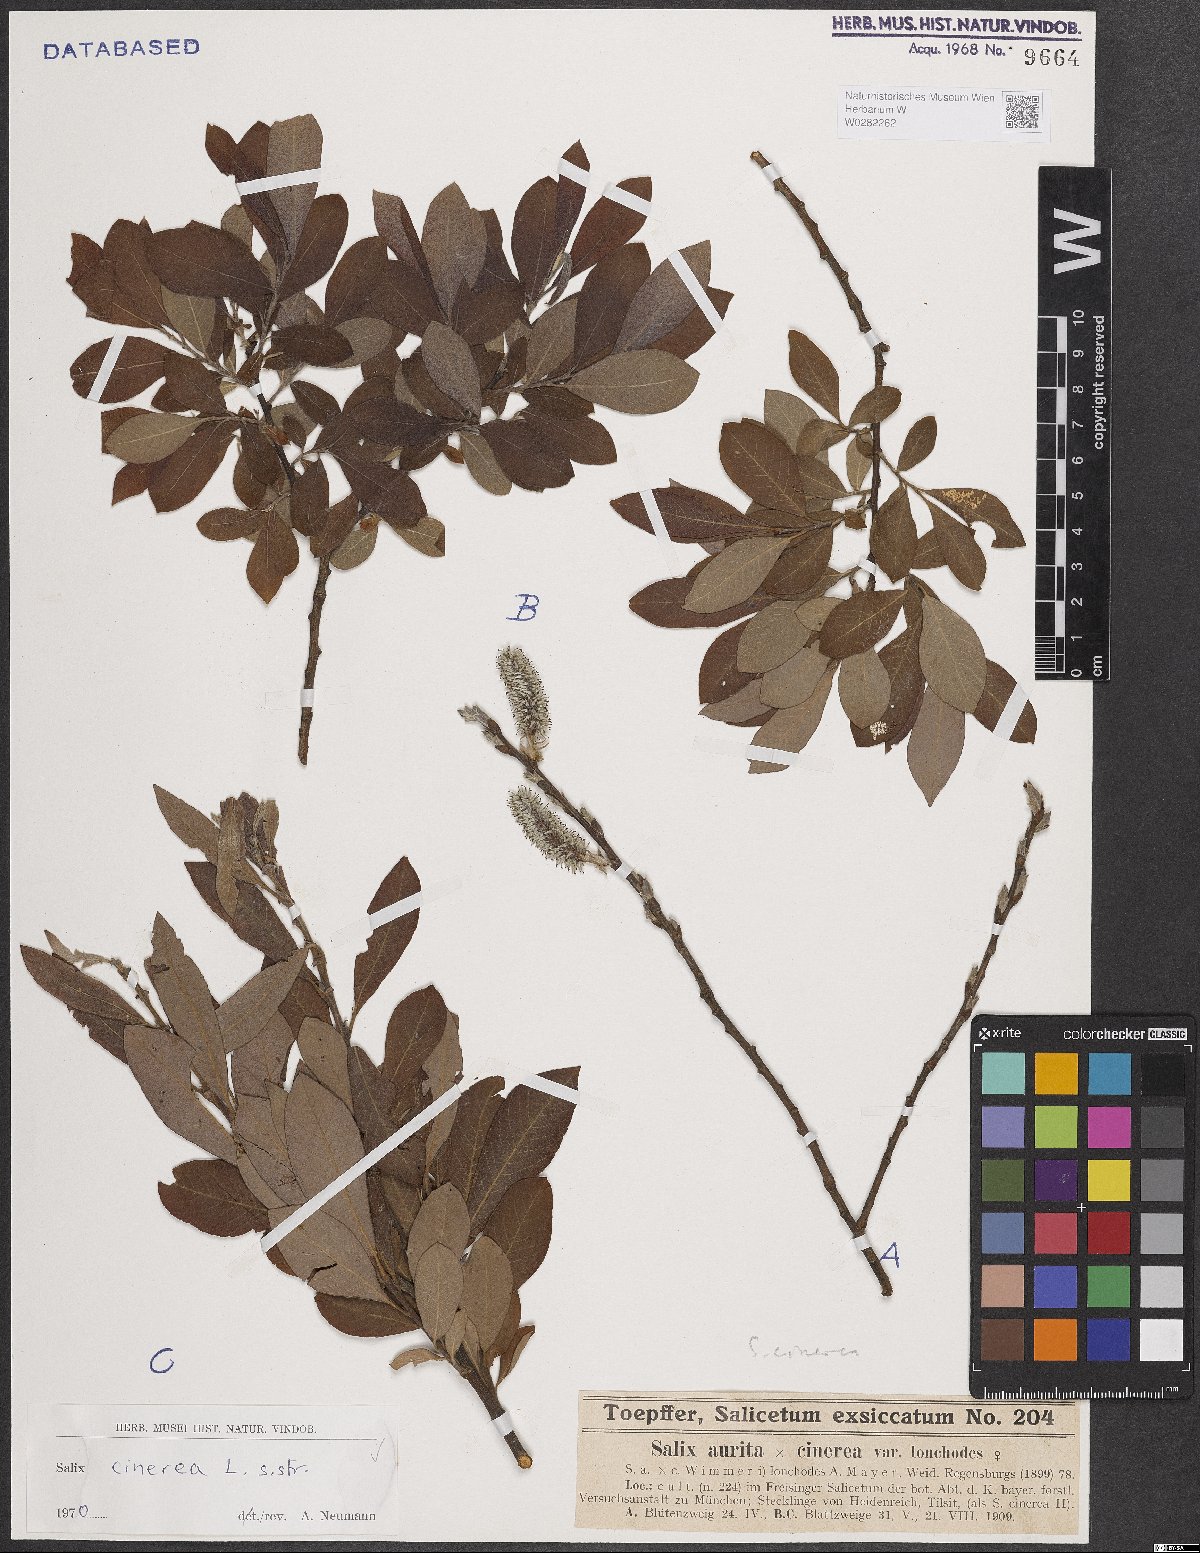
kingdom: Plantae
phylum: Tracheophyta
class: Magnoliopsida
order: Malpighiales
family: Salicaceae
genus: Salix
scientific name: Salix cinerea
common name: Common sallow
